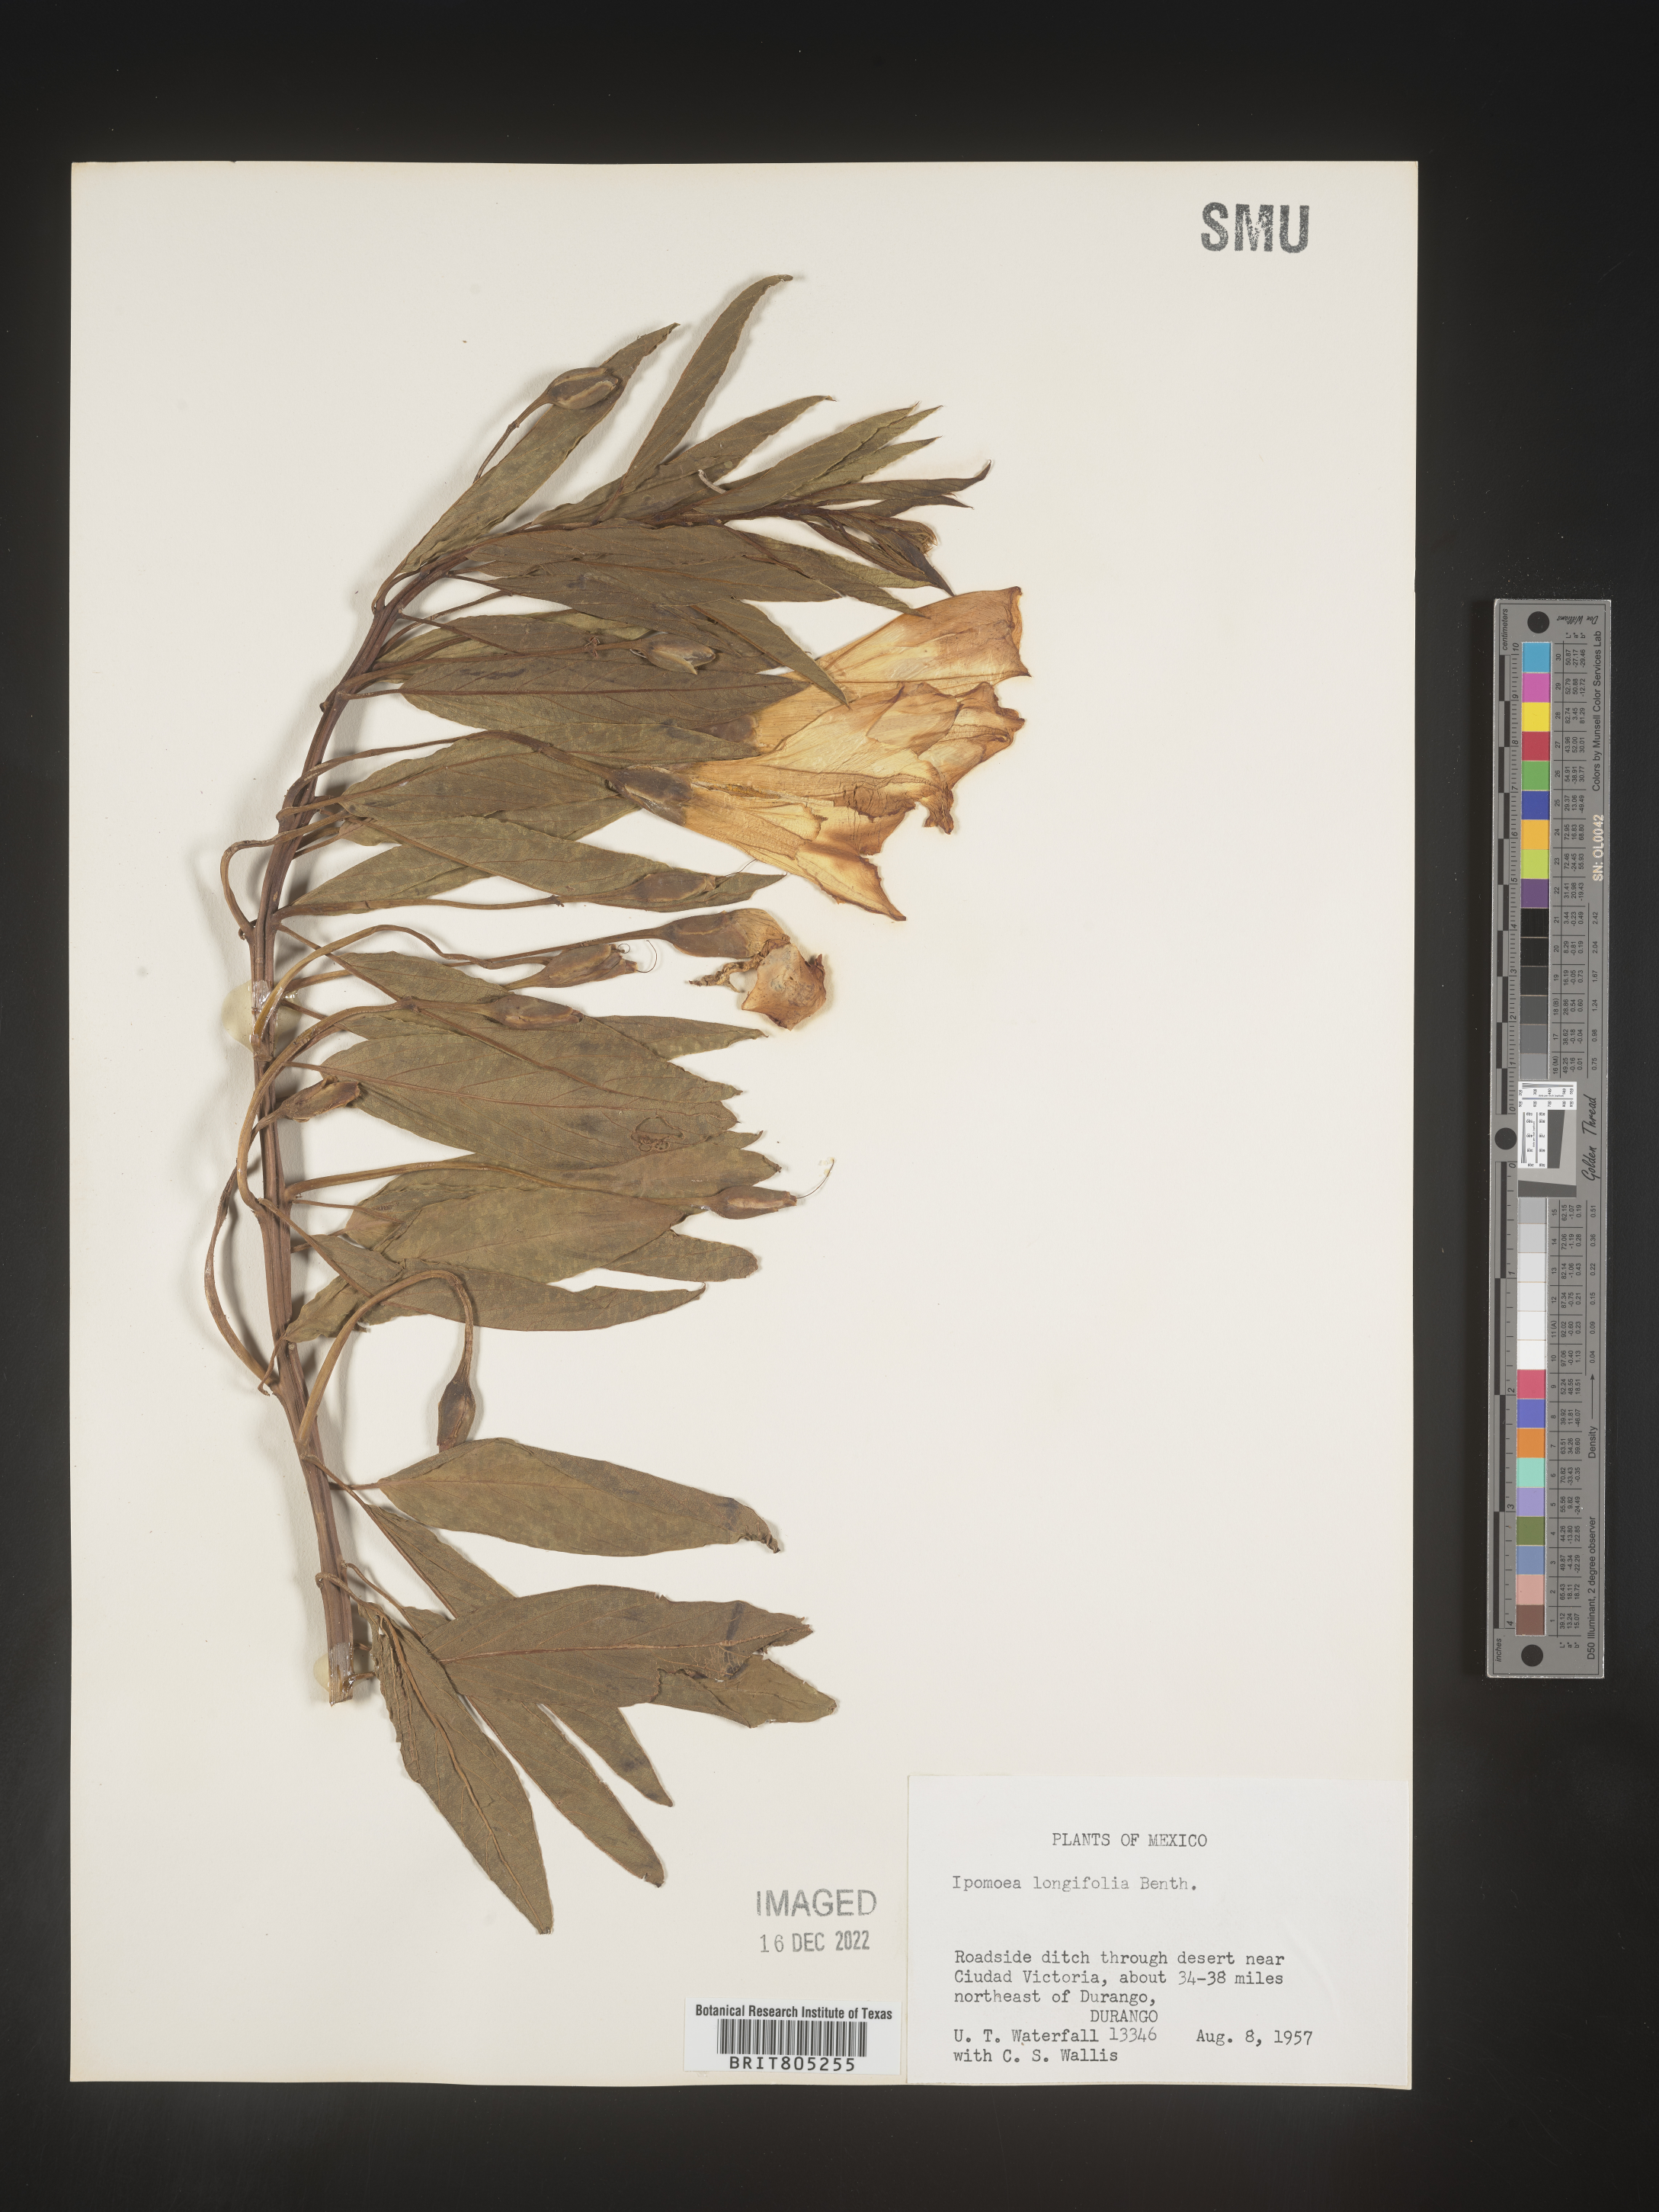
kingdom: Plantae
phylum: Tracheophyta
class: Magnoliopsida
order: Solanales
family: Convolvulaceae
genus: Ipomoea
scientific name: Ipomoea
